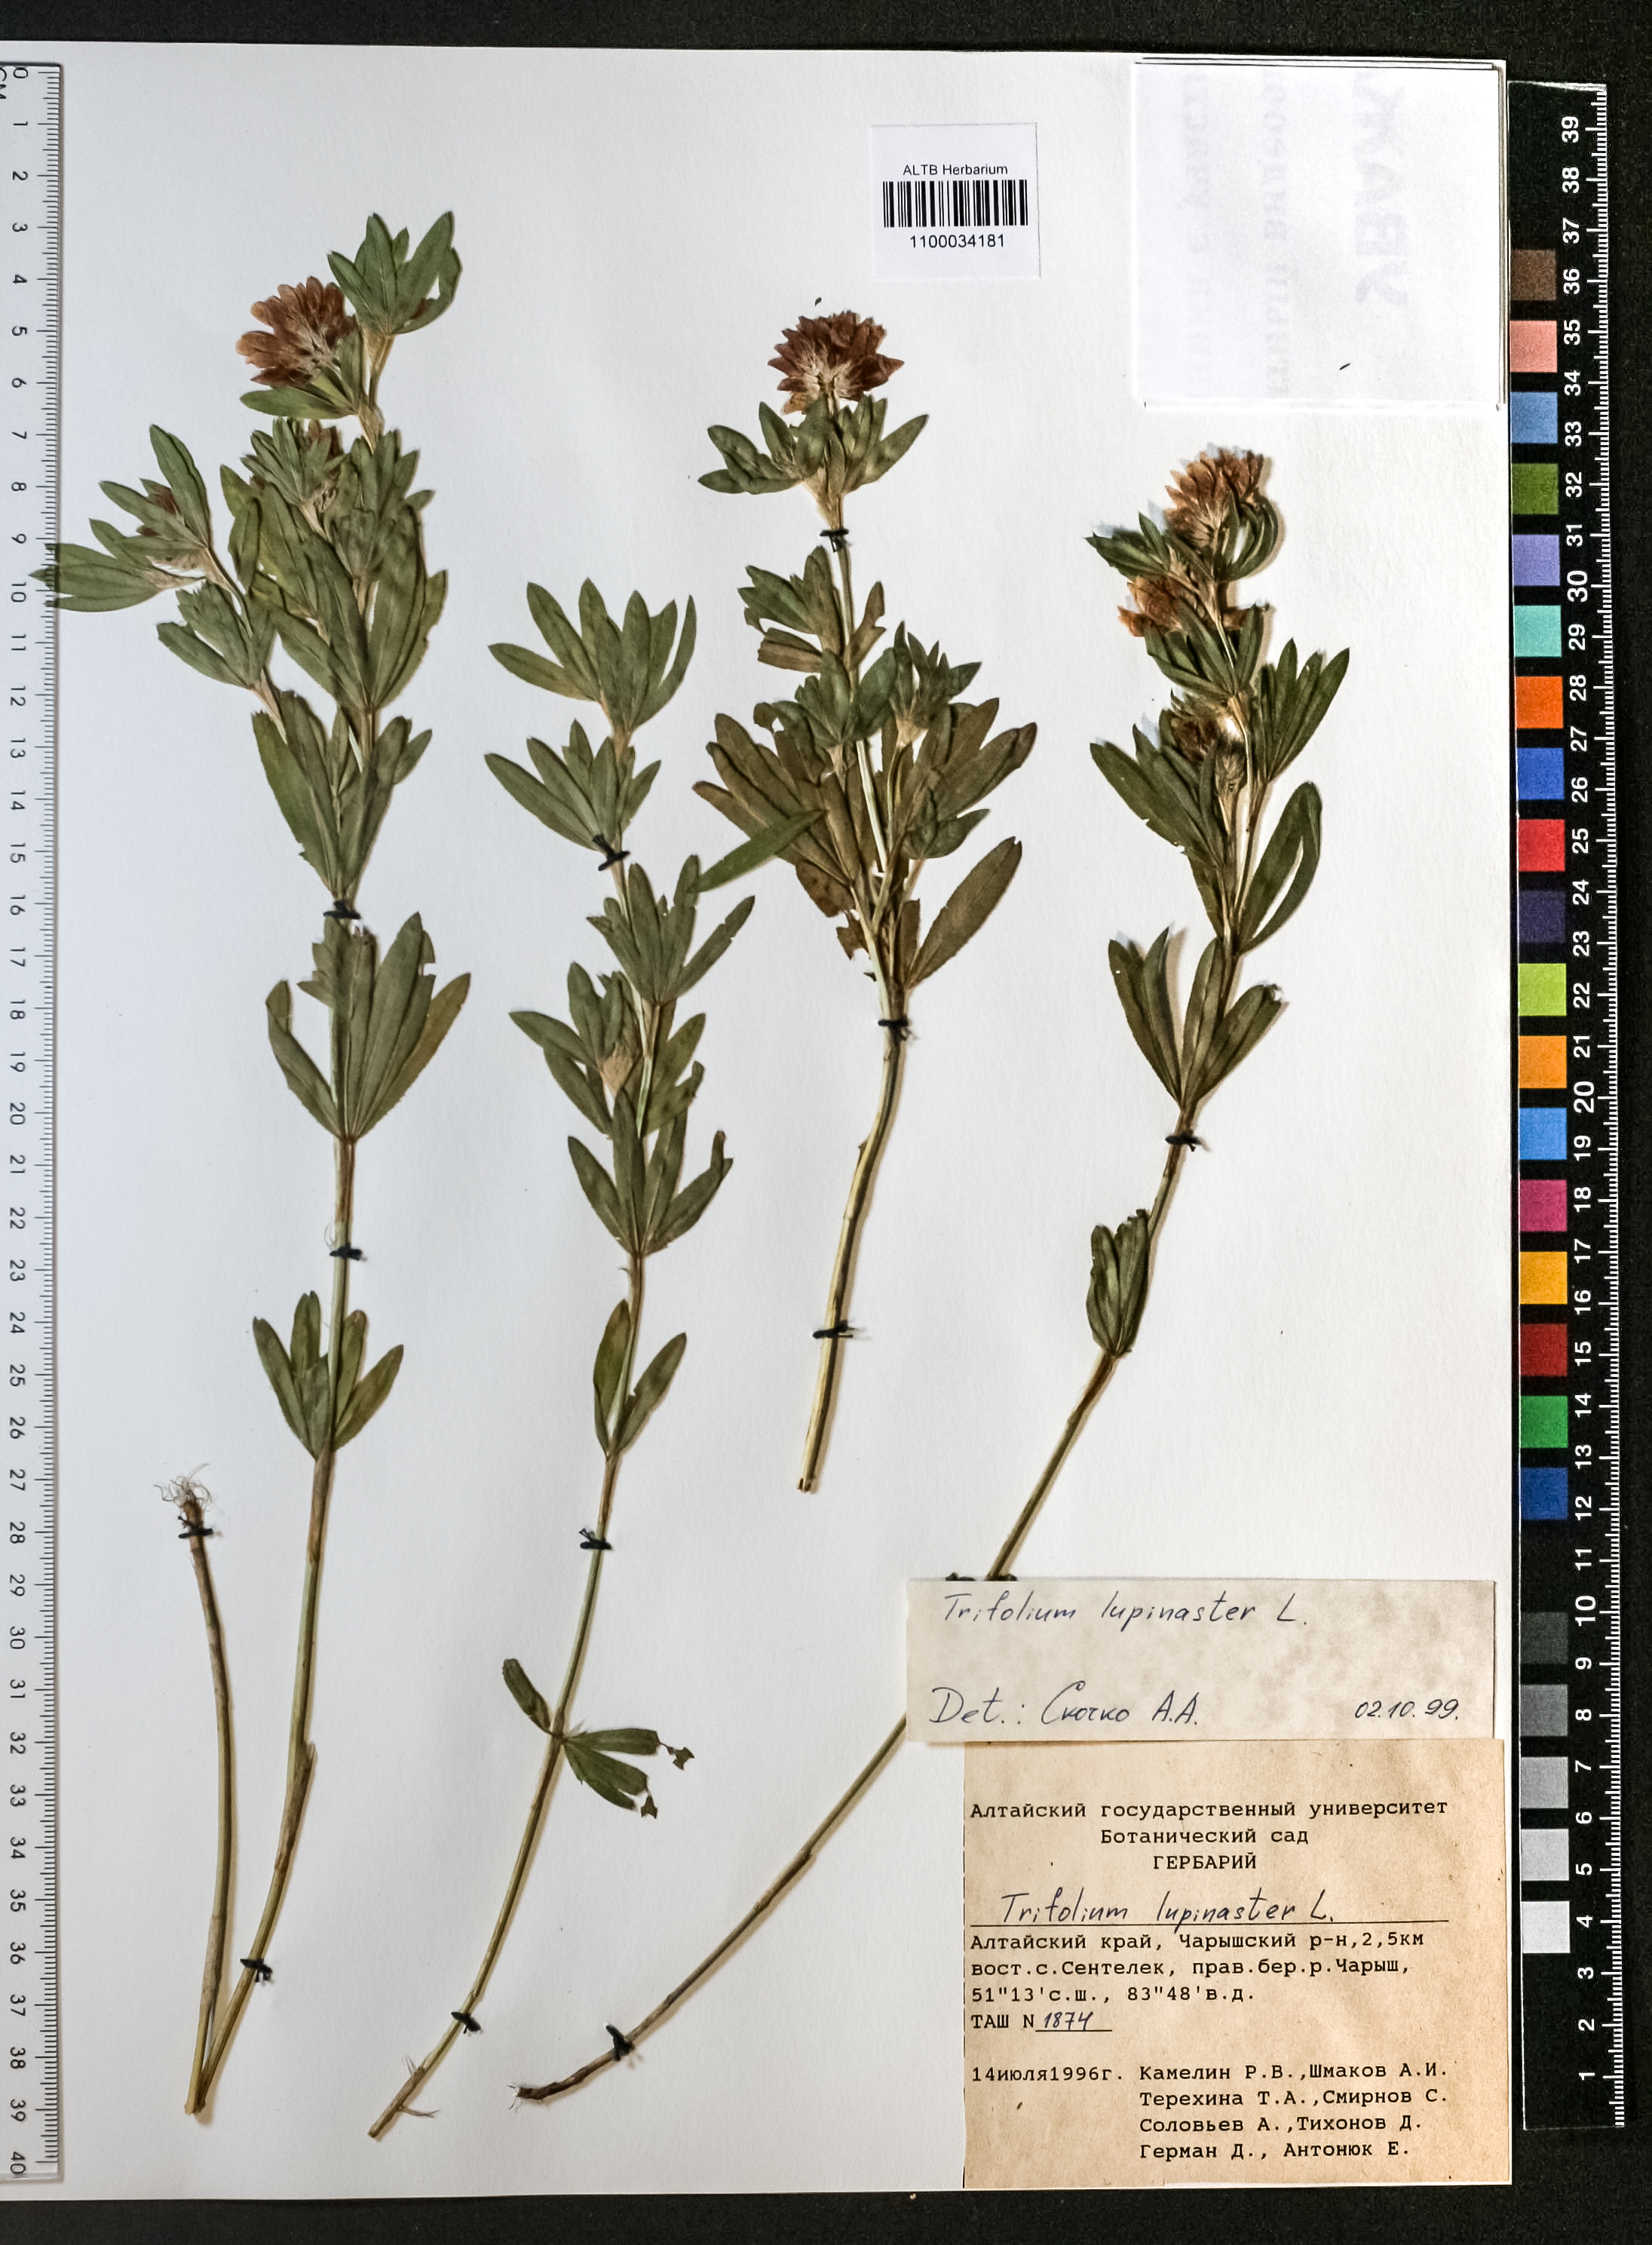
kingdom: Plantae
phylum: Tracheophyta
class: Magnoliopsida
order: Fabales
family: Fabaceae
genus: Trifolium
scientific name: Trifolium lupinaster
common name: Lupine clover
